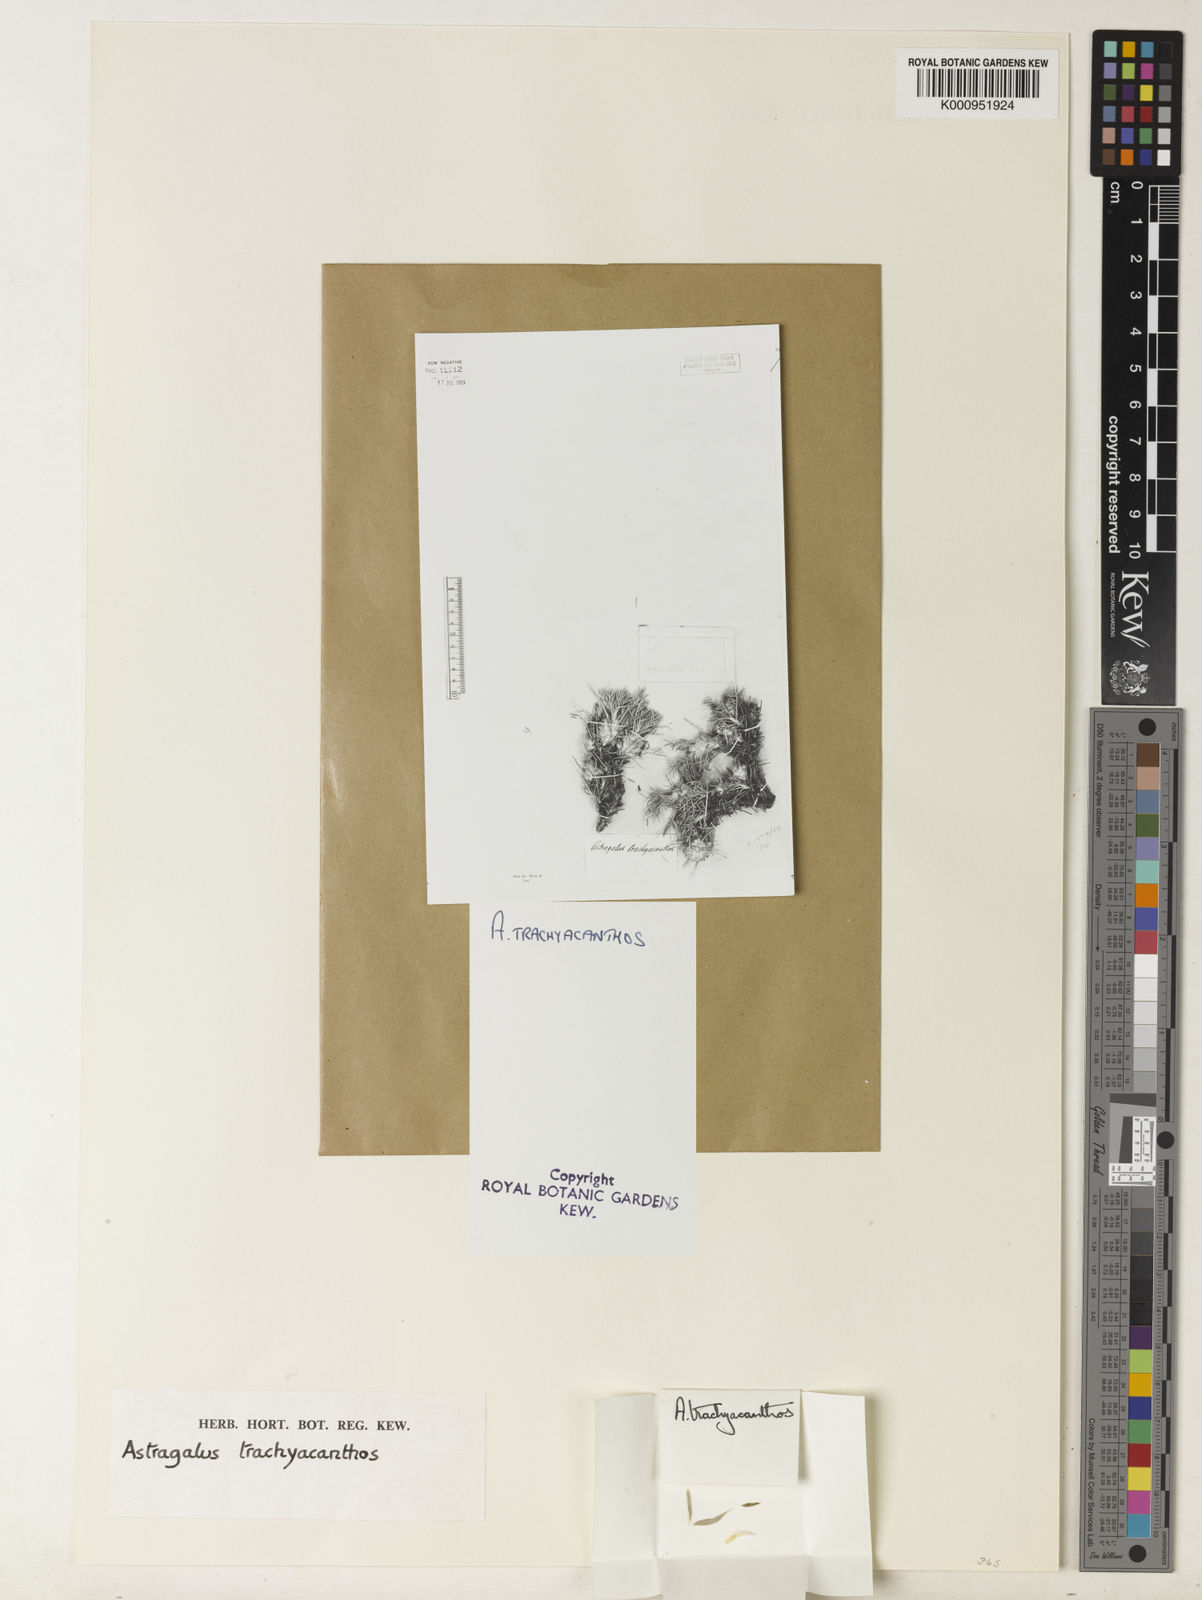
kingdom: Plantae
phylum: Tracheophyta
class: Magnoliopsida
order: Fabales
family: Fabaceae
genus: Astragalus
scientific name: Astragalus
